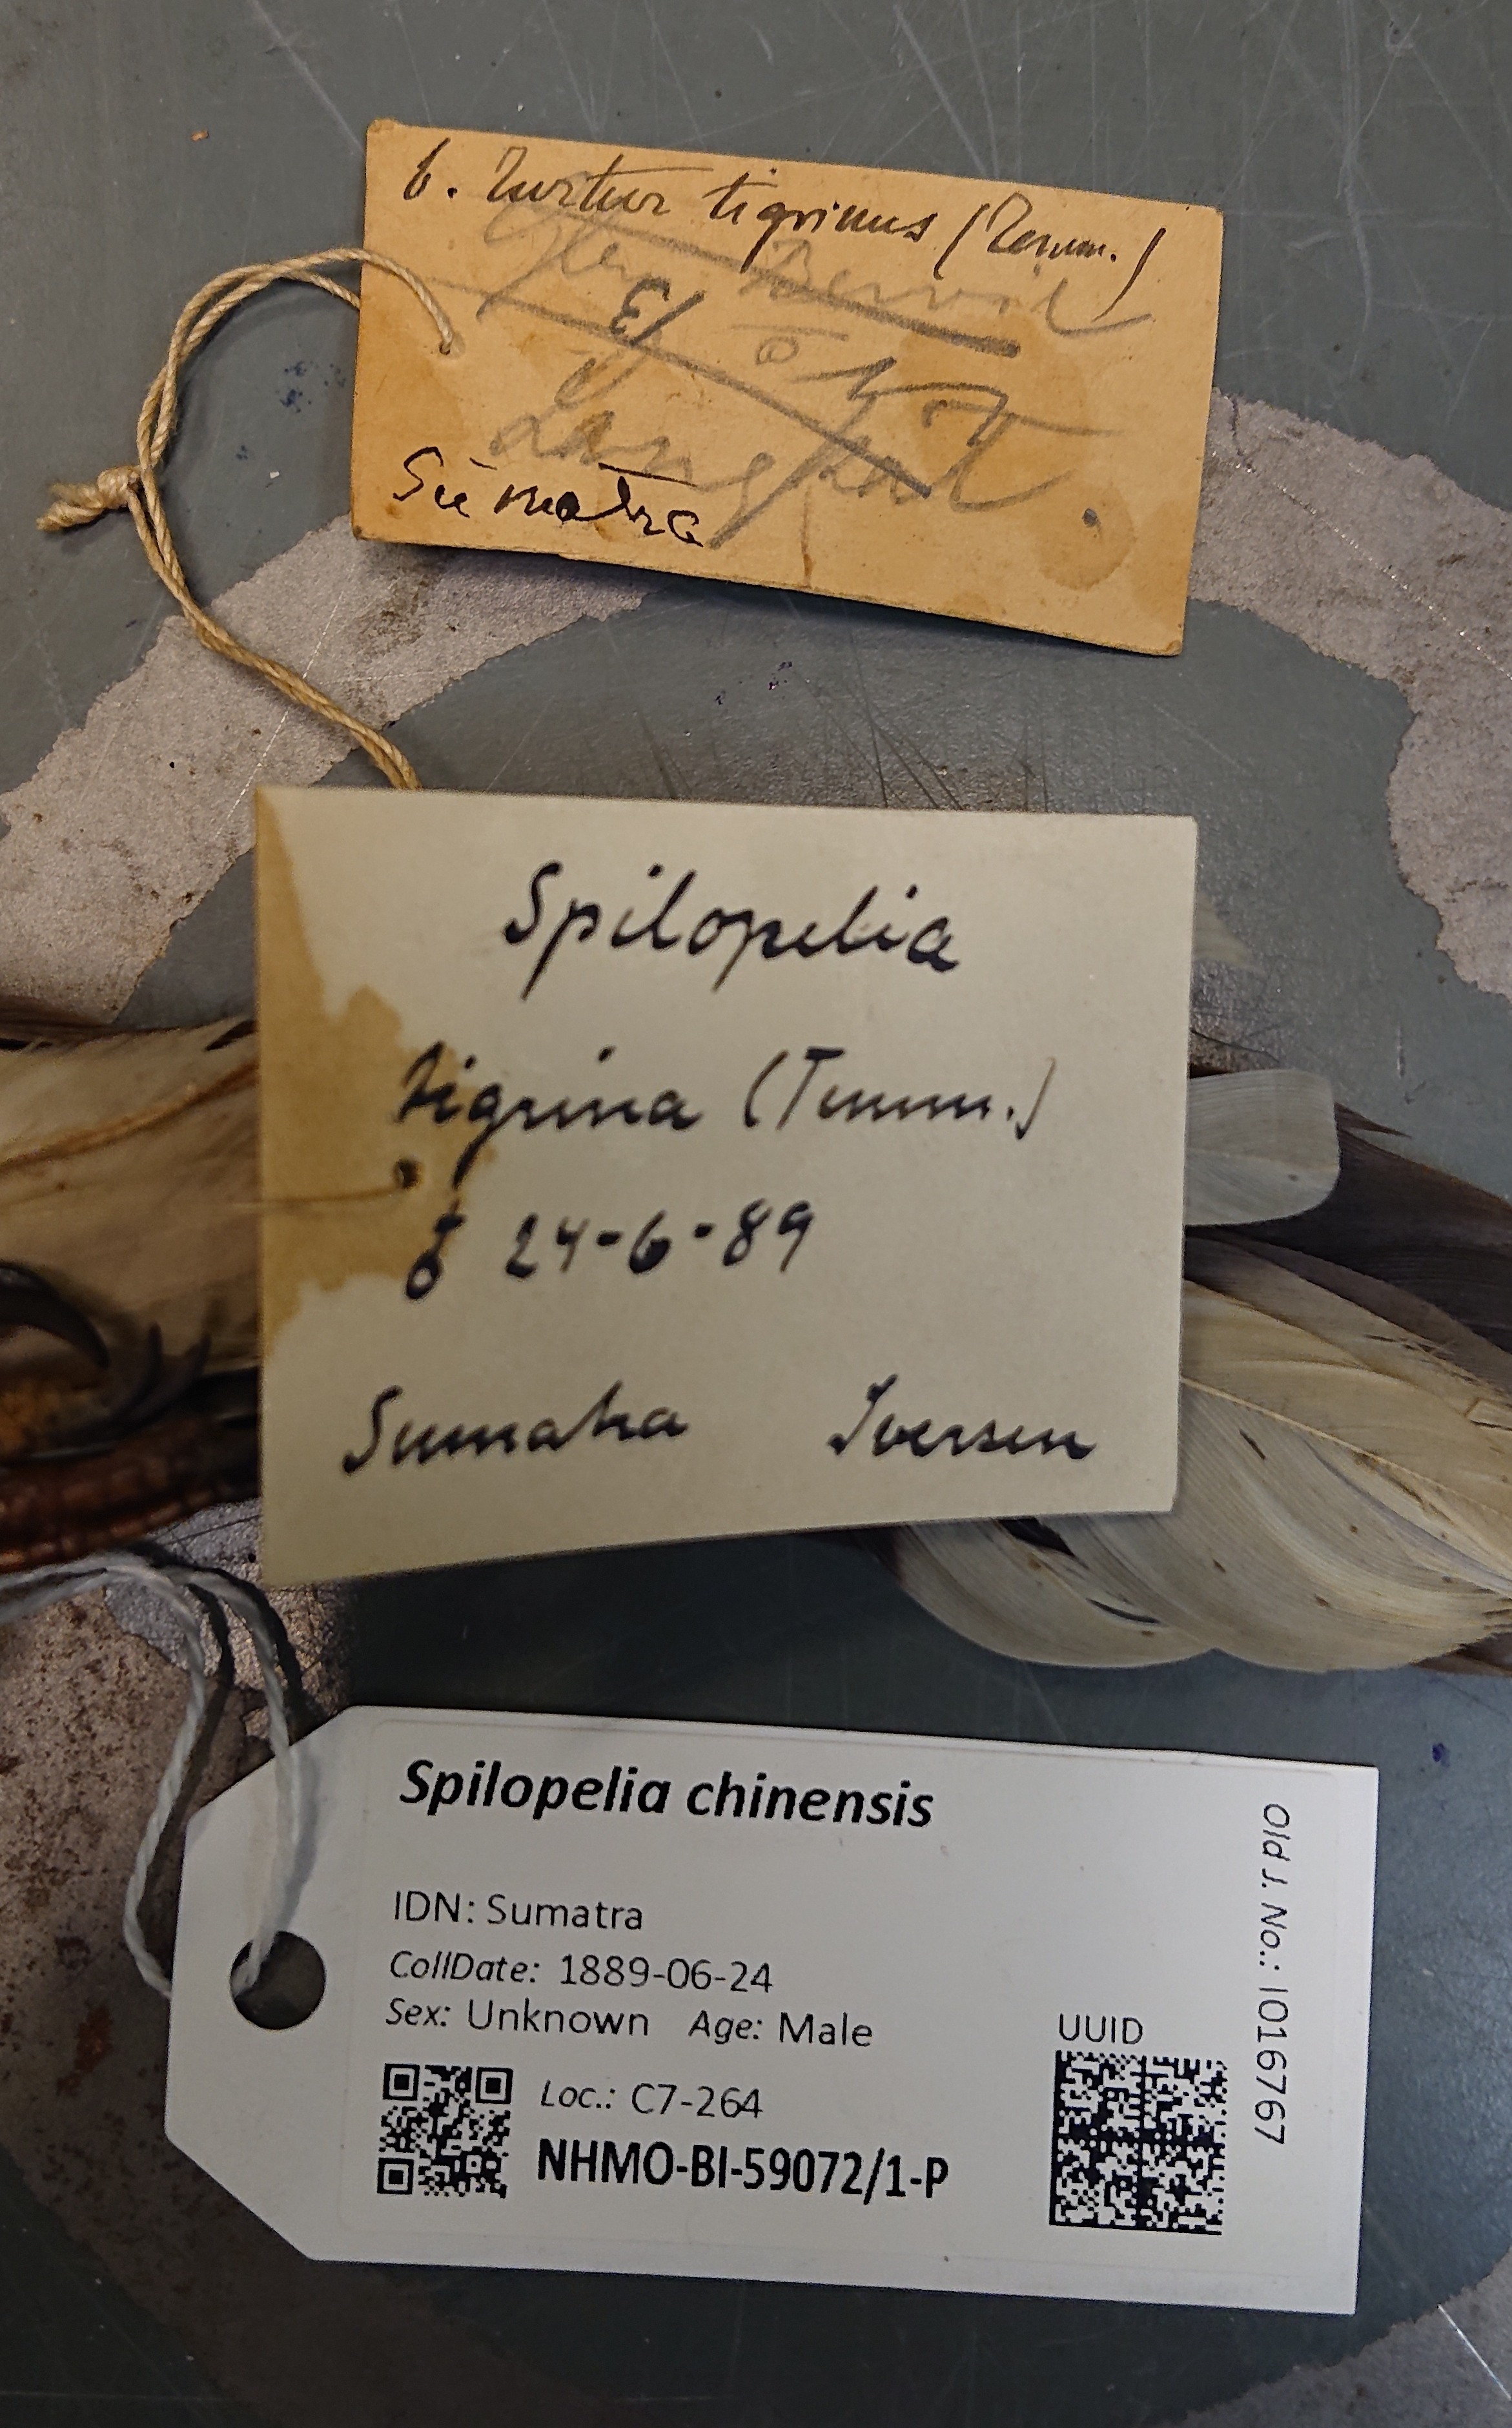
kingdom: Animalia
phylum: Chordata
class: Aves
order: Columbiformes
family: Columbidae
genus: Spilopelia
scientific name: Spilopelia chinensis
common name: Spotted dove
